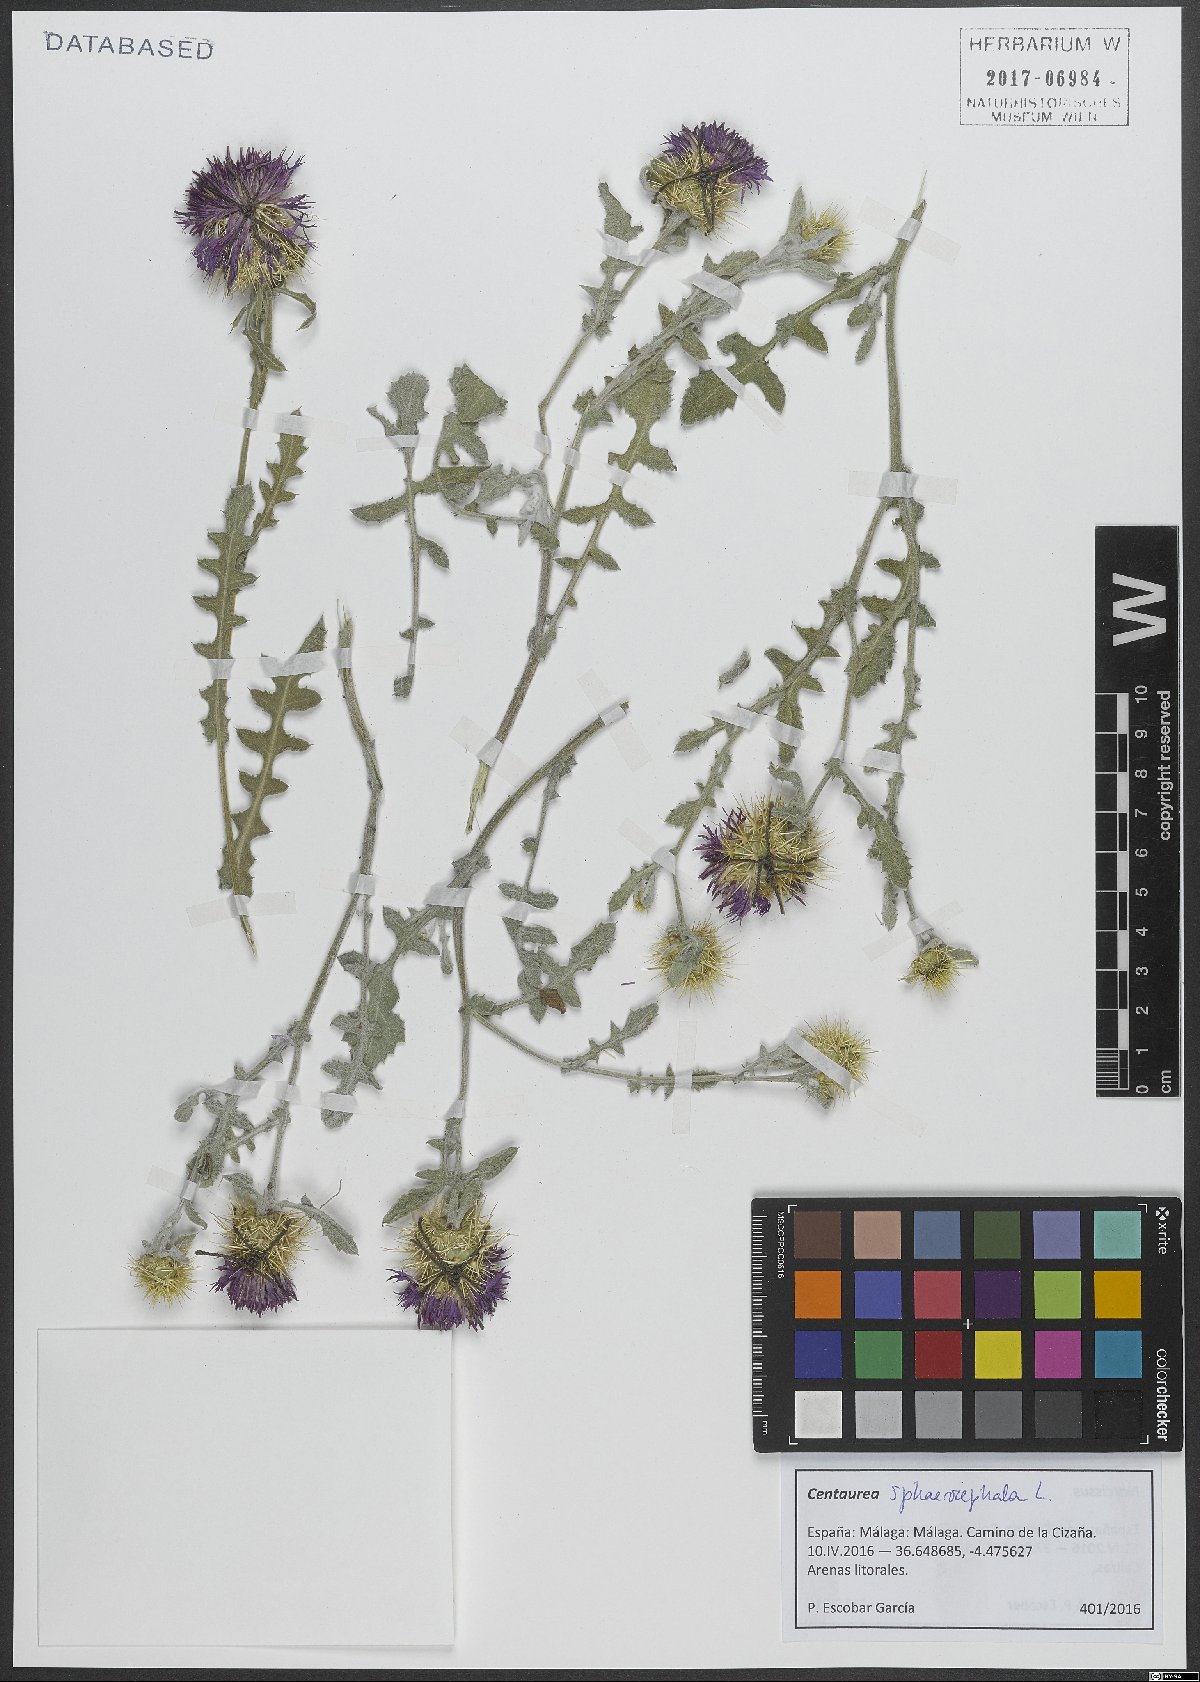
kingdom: Plantae
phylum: Tracheophyta
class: Magnoliopsida
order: Asterales
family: Asteraceae
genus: Centaurea
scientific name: Centaurea sphaerocephala
